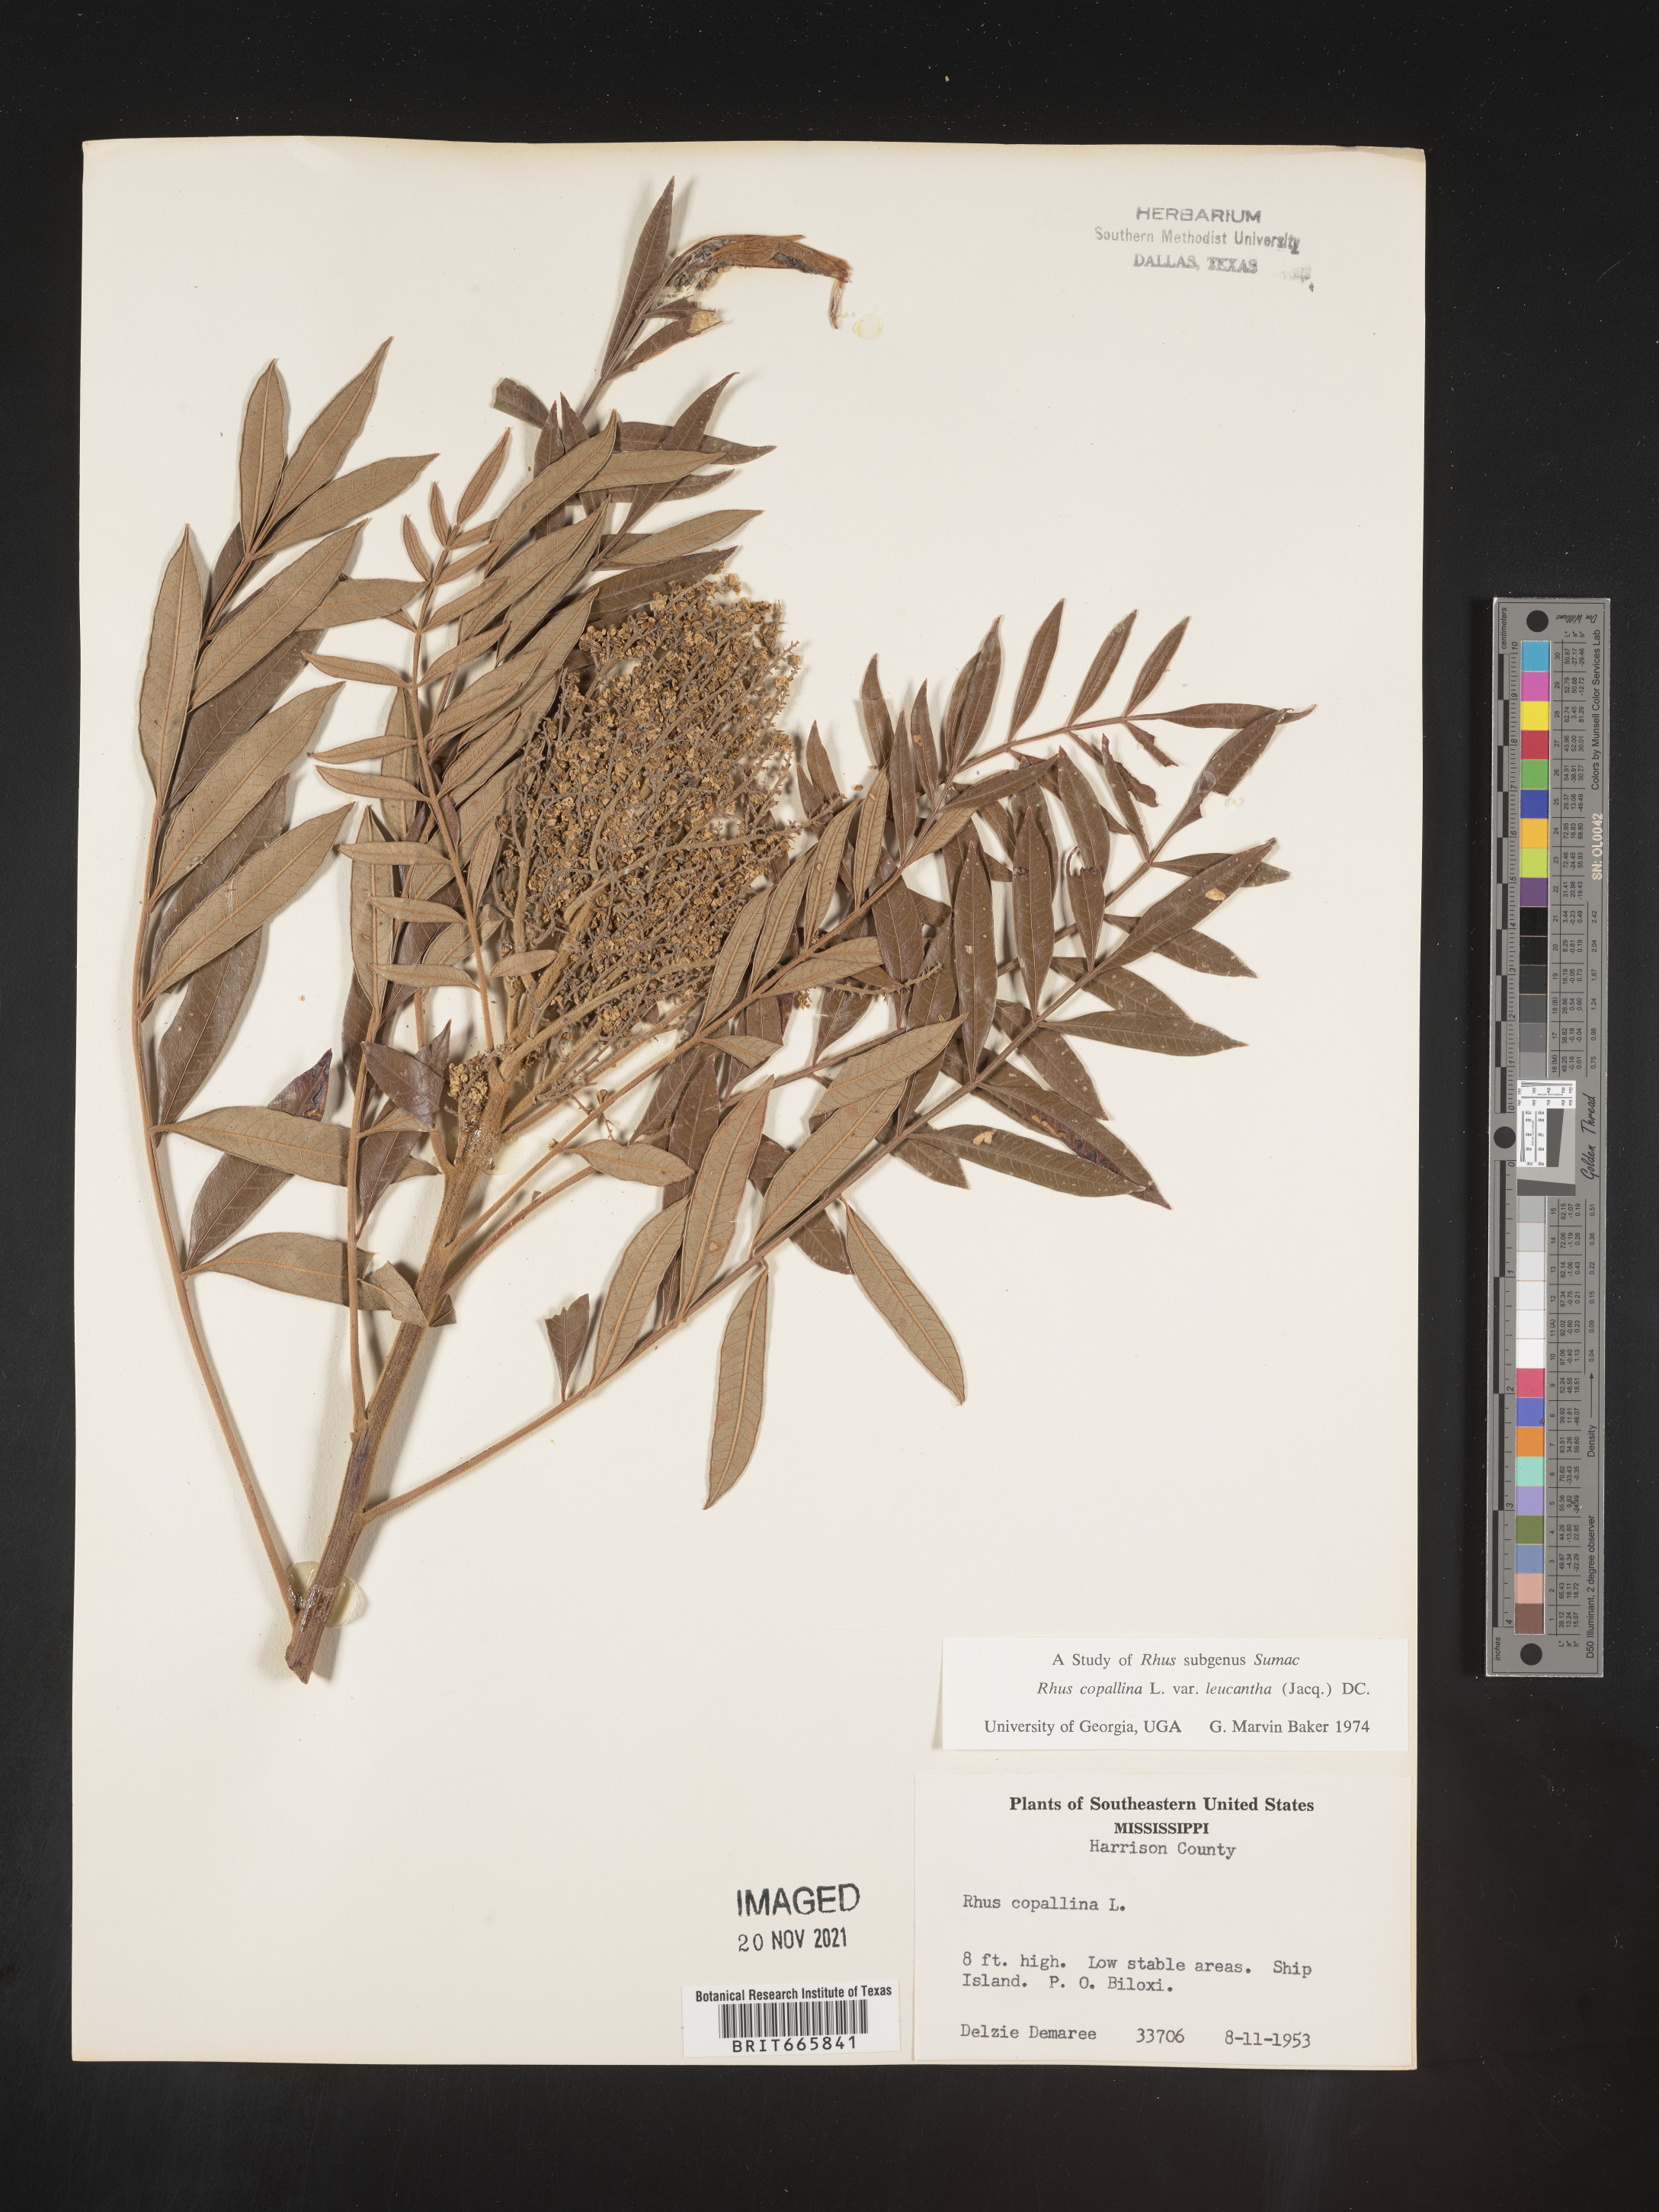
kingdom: Plantae
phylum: Tracheophyta
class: Magnoliopsida
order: Sapindales
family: Anacardiaceae
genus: Rhus
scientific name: Rhus copallina
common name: Shining sumac
